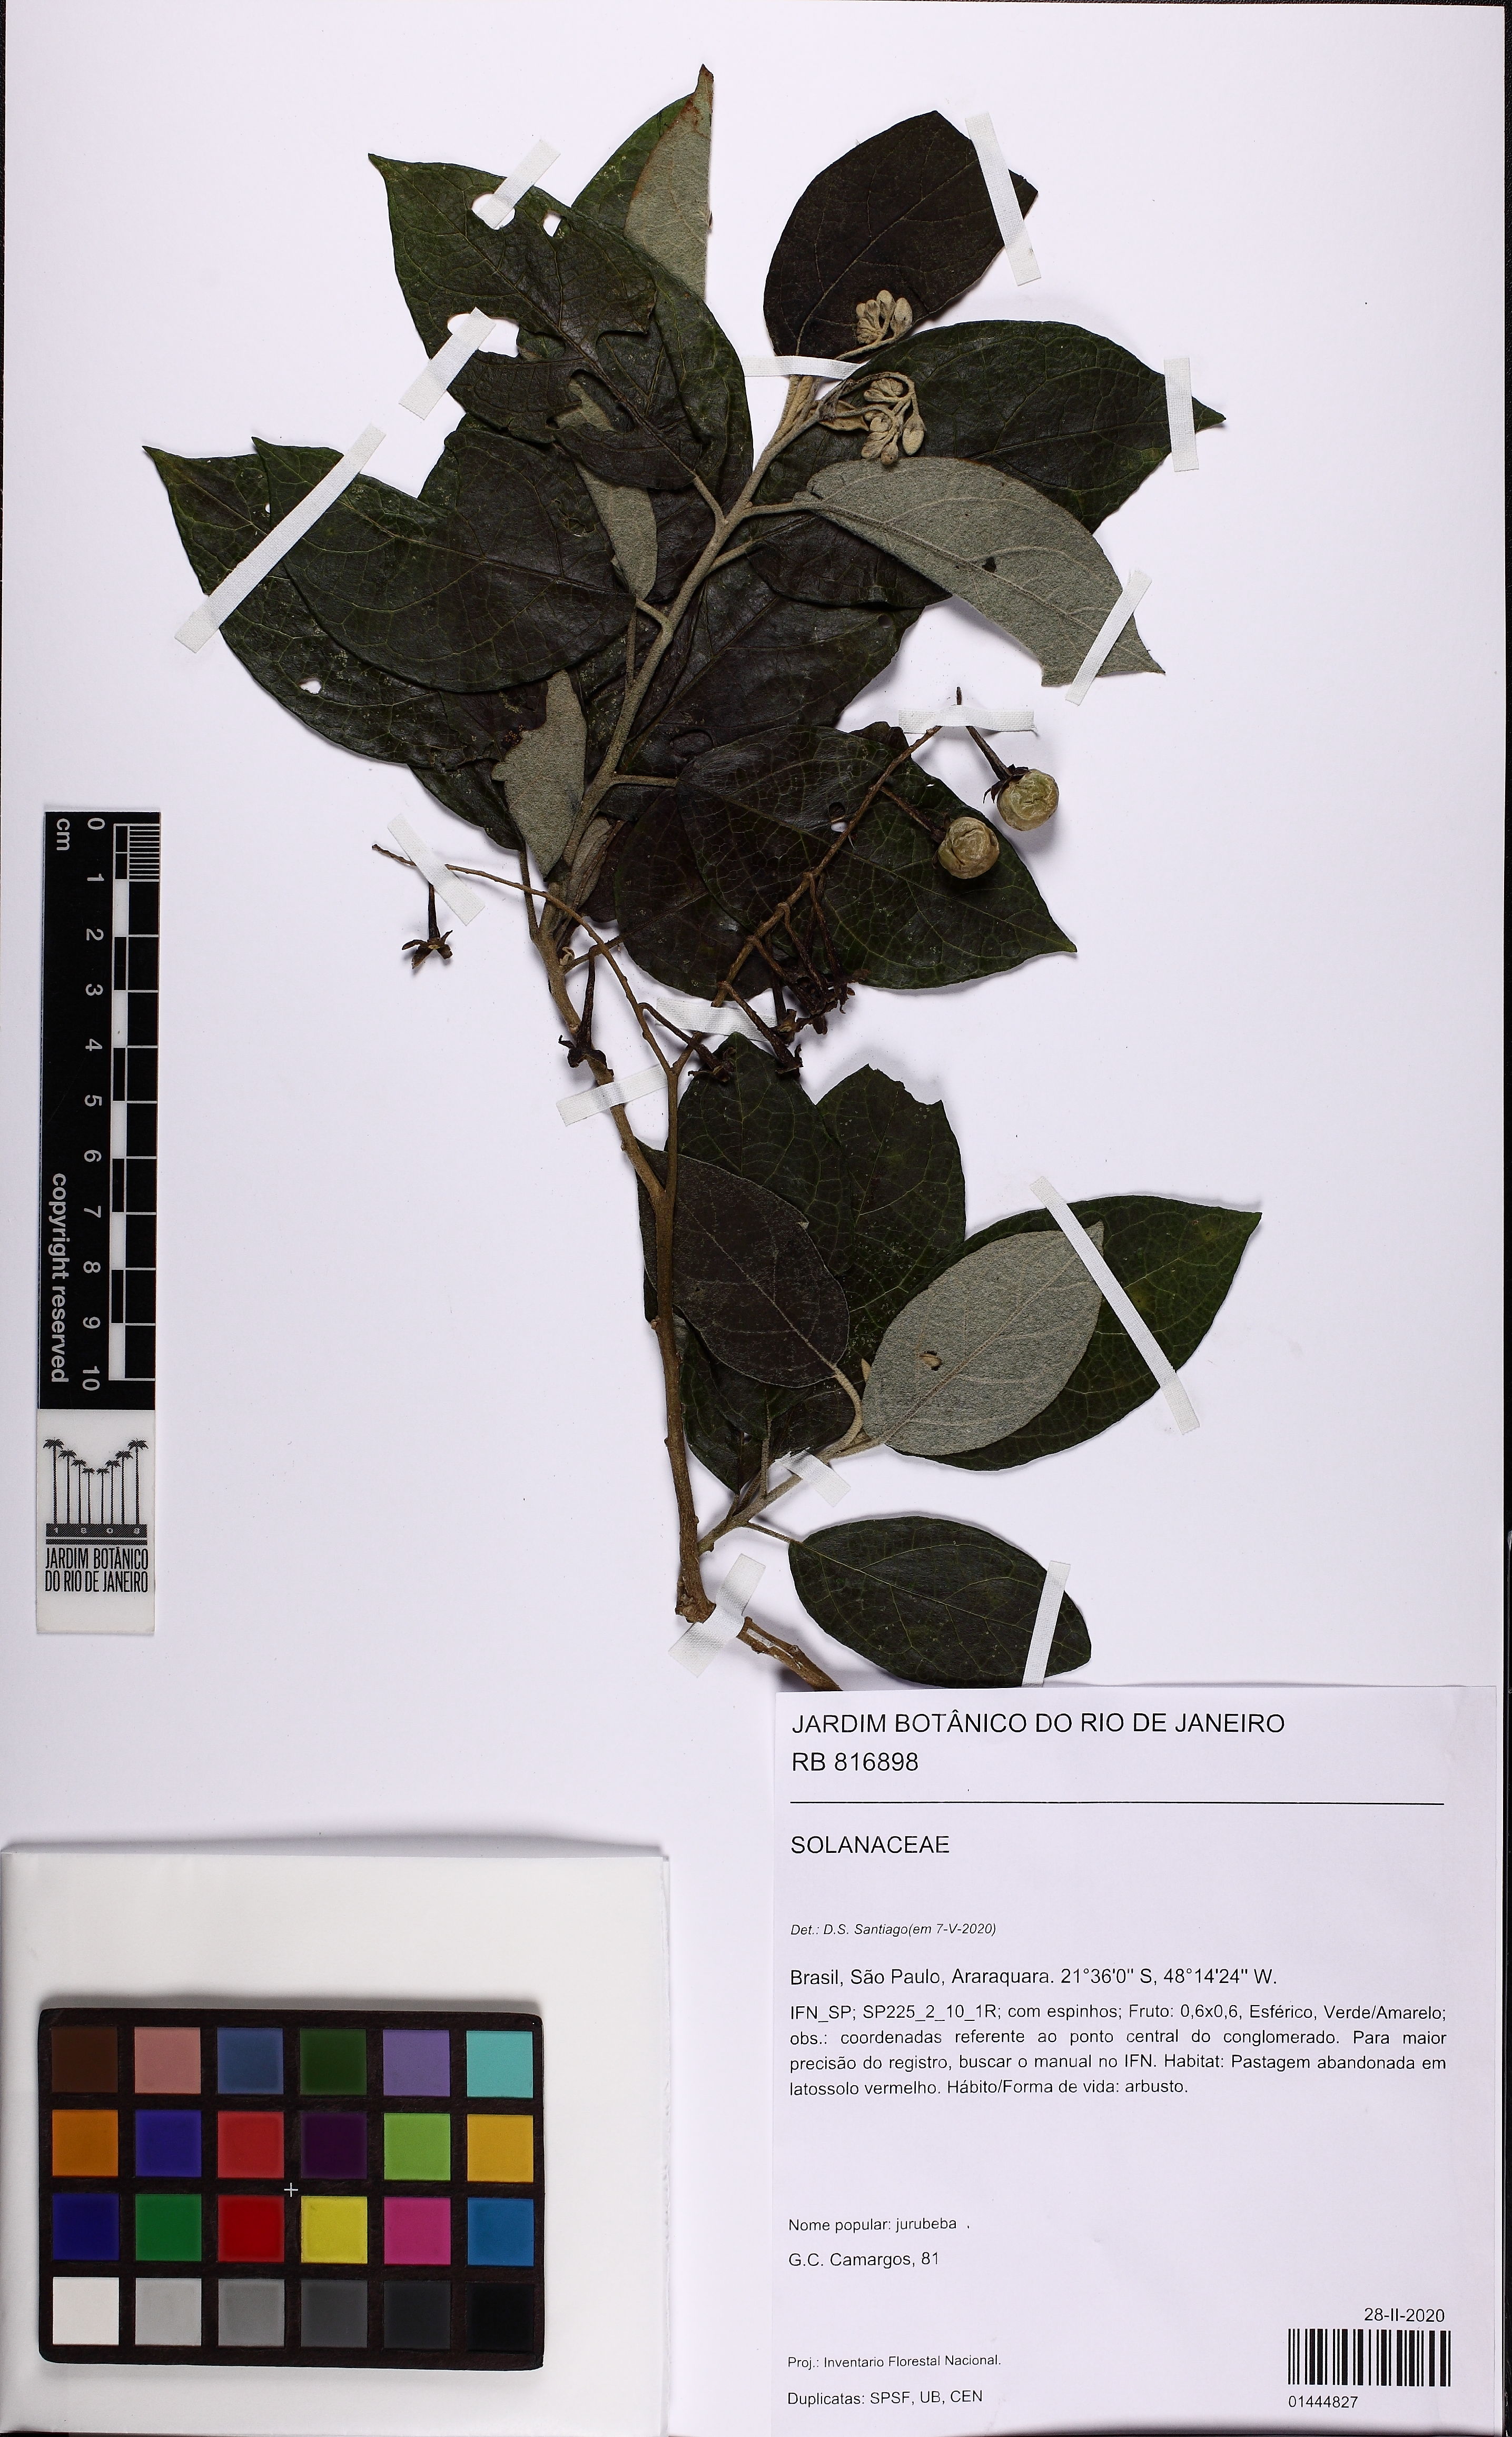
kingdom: Plantae
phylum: Tracheophyta
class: Magnoliopsida
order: Solanales
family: Solanaceae
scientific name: Solanaceae
